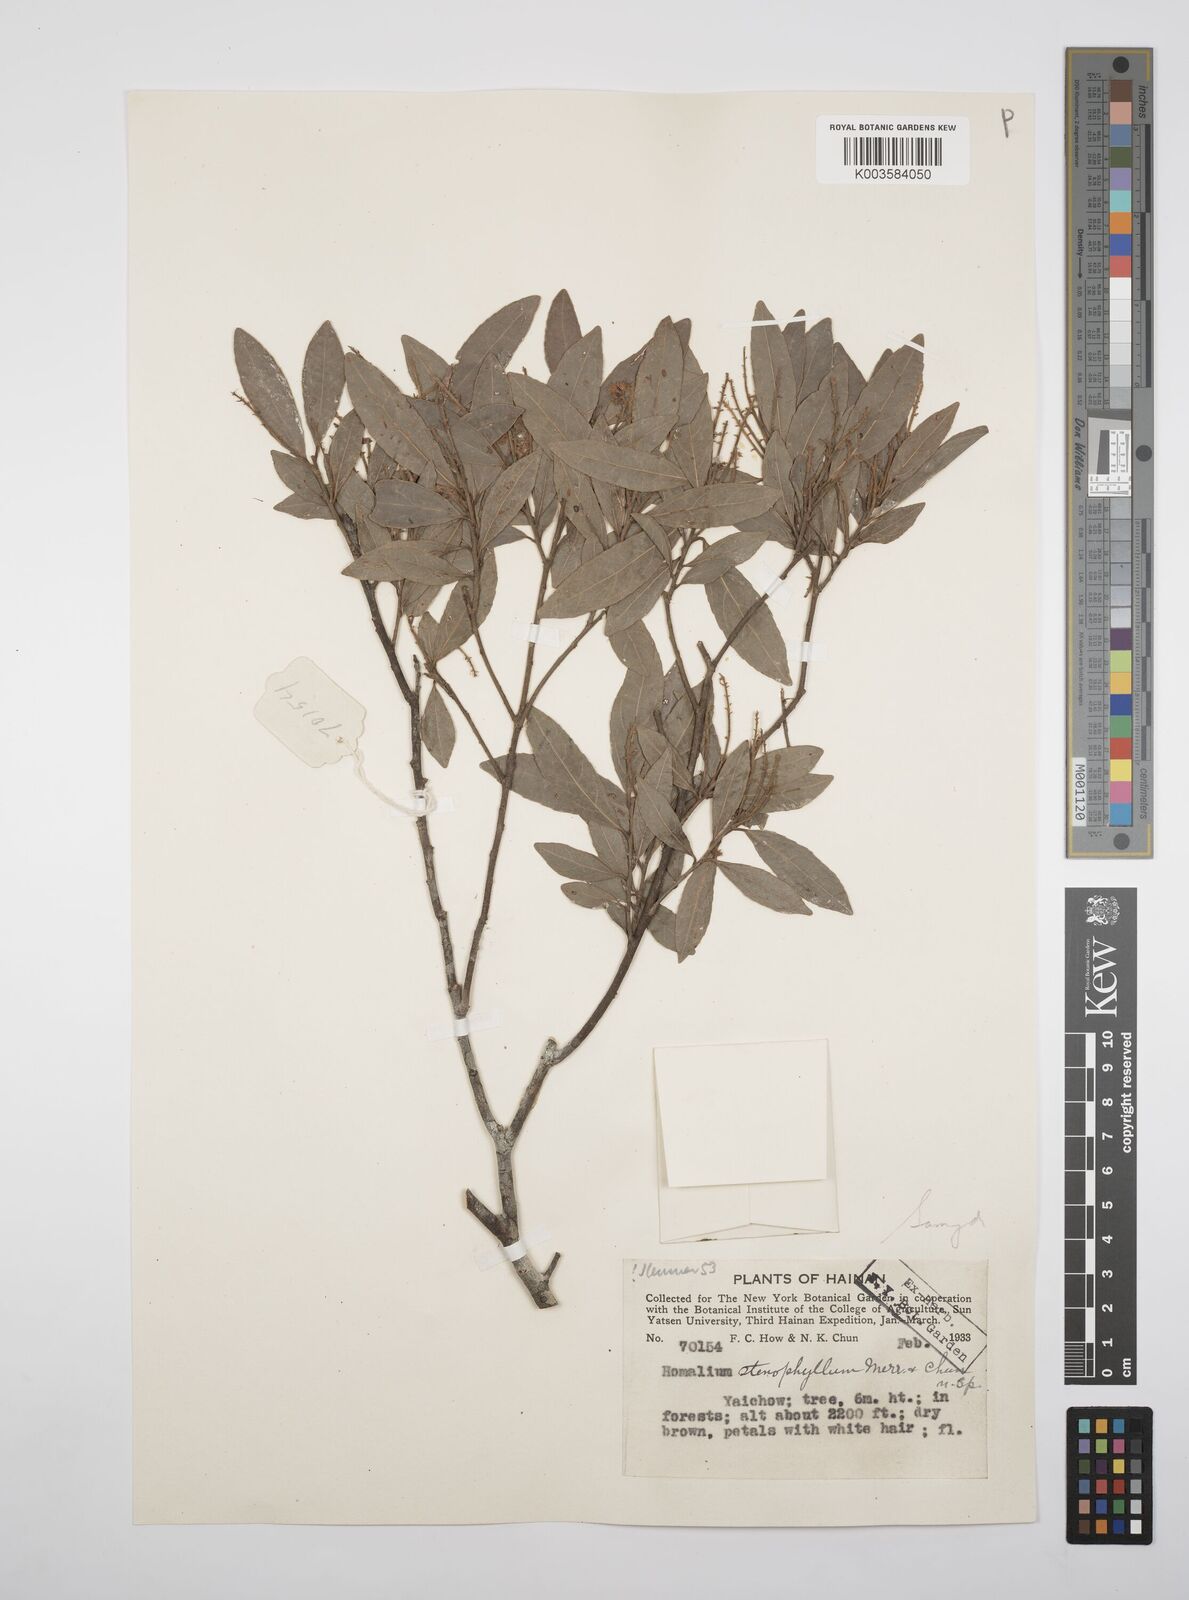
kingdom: Plantae
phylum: Tracheophyta
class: Magnoliopsida
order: Malpighiales
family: Salicaceae
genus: Homalium
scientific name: Homalium stenophyllum
